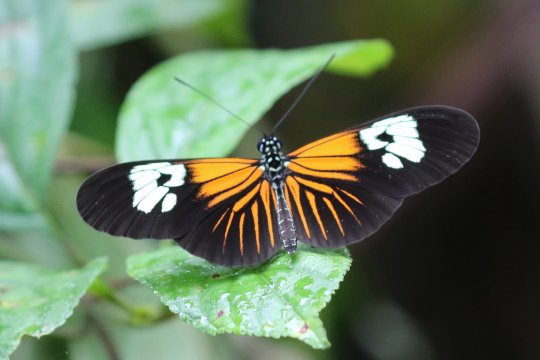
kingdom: Animalia
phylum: Arthropoda
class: Insecta
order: Lepidoptera
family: Nymphalidae
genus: Heliconius
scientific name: Heliconius erato
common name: Erato Heliconian
